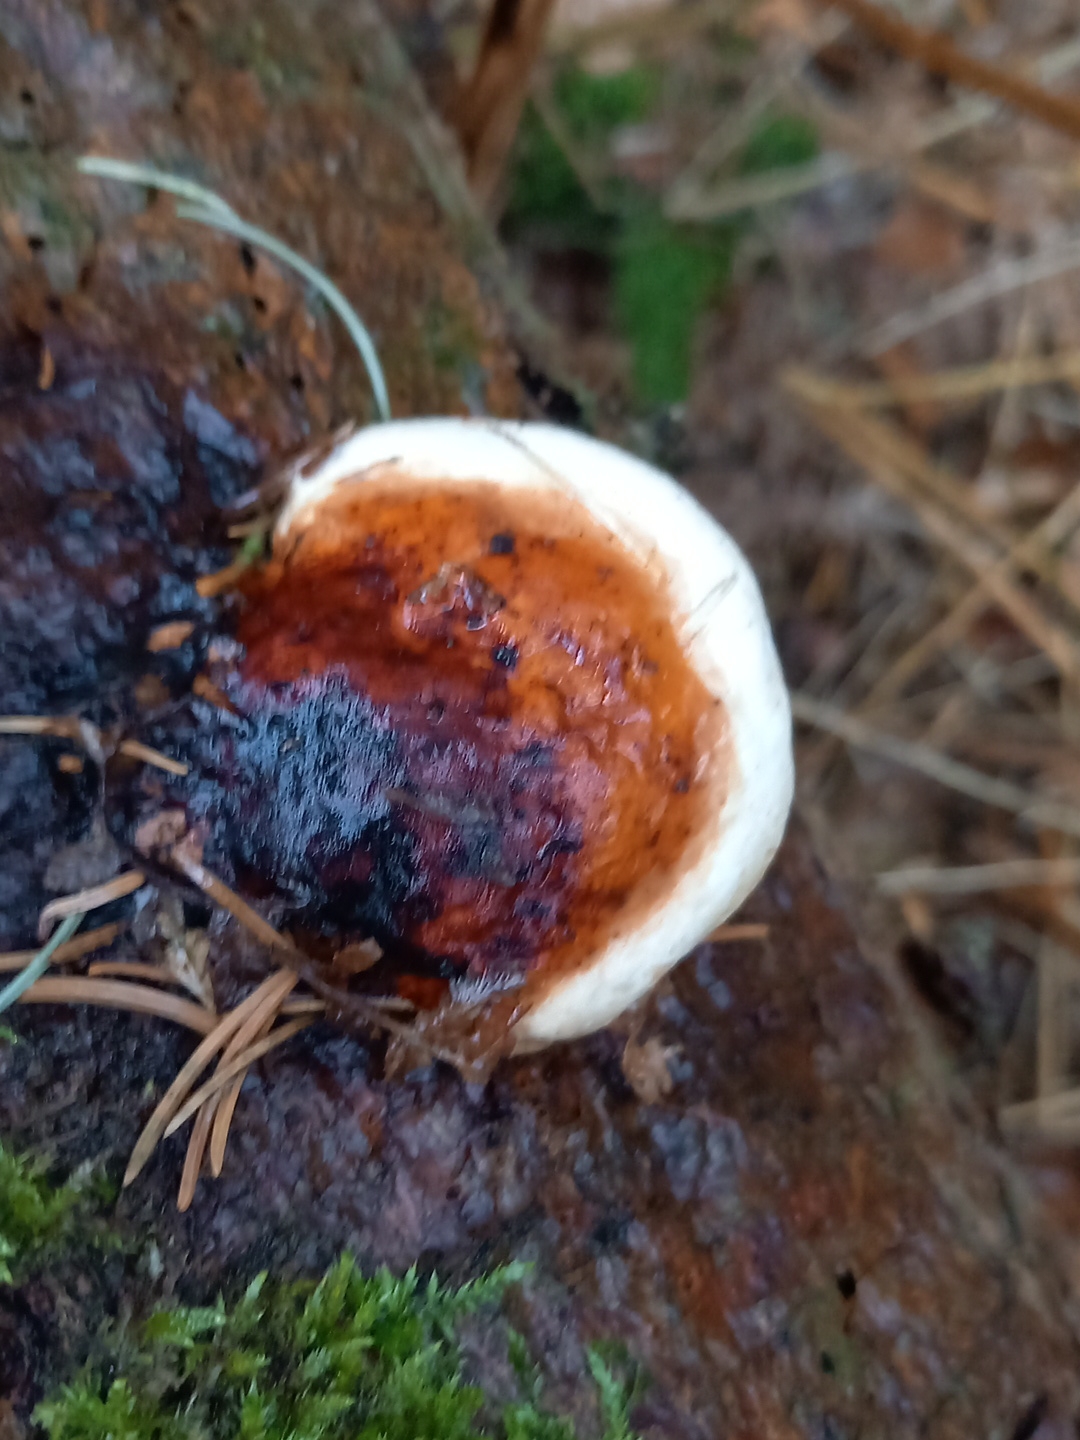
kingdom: Fungi
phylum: Basidiomycota
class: Agaricomycetes
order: Polyporales
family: Fomitopsidaceae
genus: Fomitopsis
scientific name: Fomitopsis pinicola
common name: randbæltet hovporesvamp
